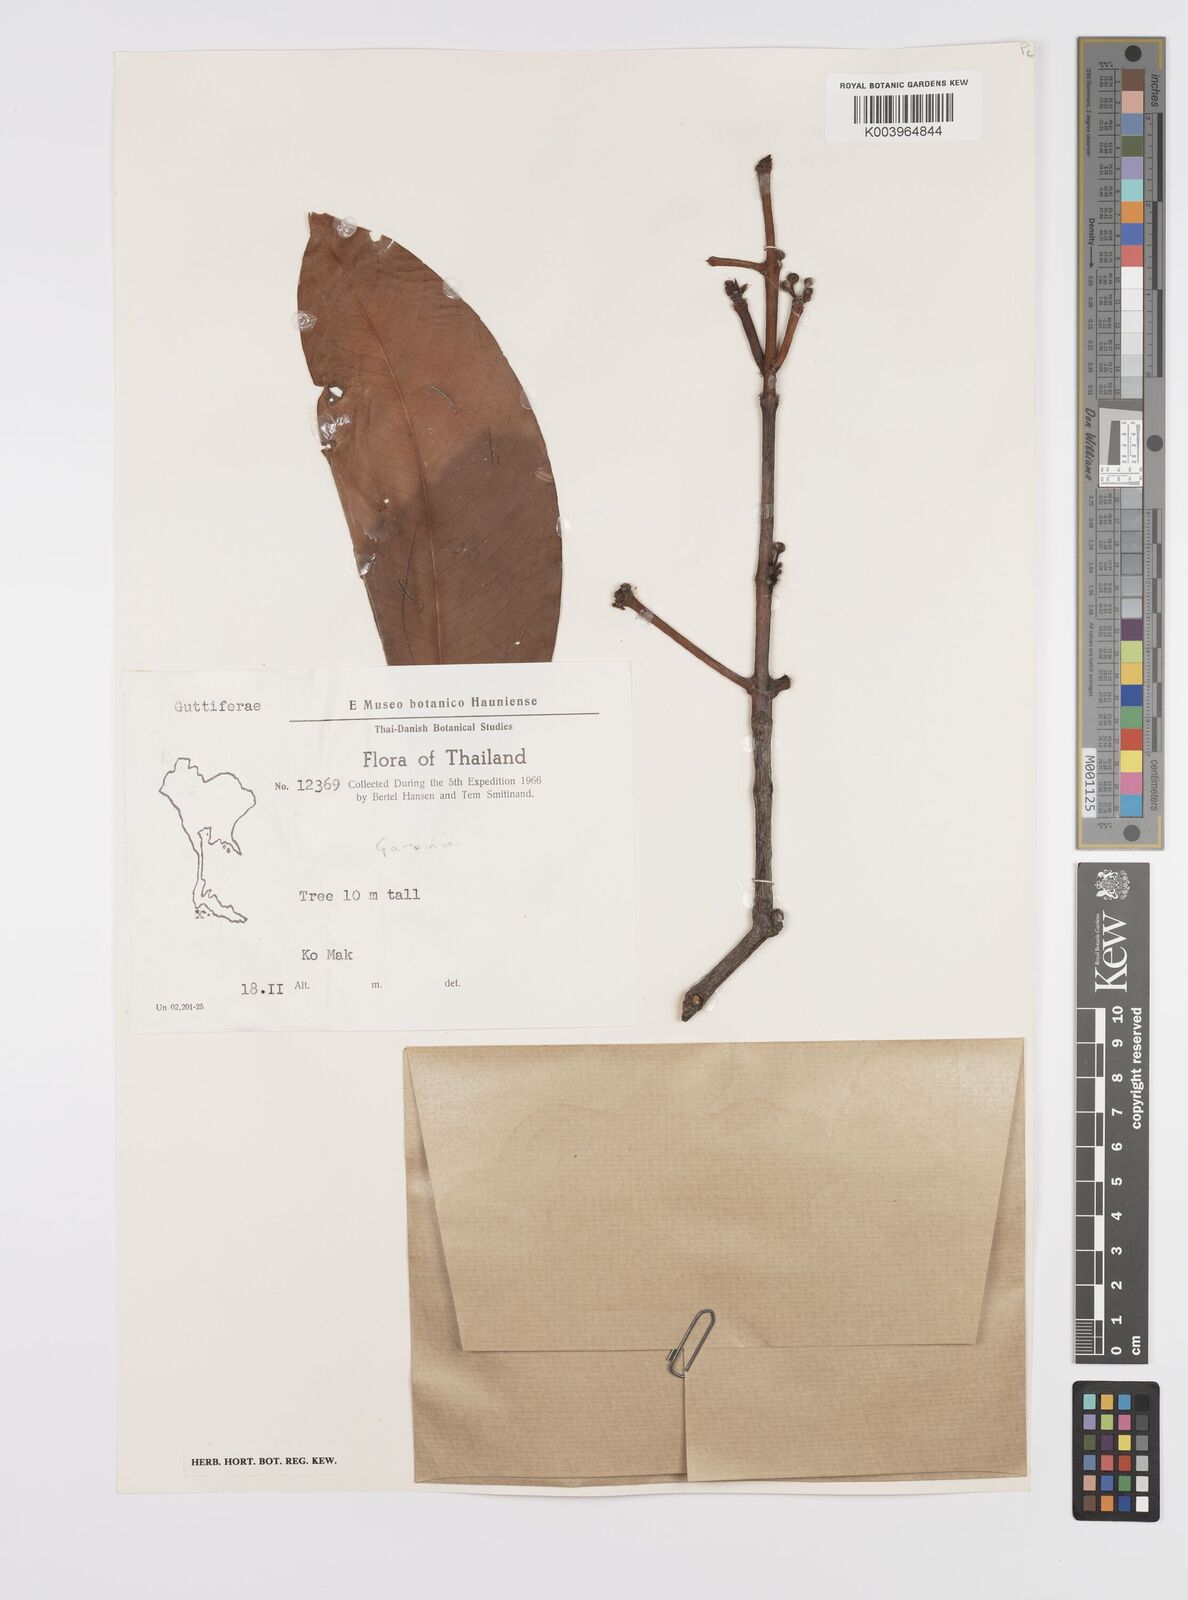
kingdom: Plantae
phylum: Tracheophyta
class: Magnoliopsida
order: Malpighiales
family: Clusiaceae
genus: Garcinia
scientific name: Garcinia
